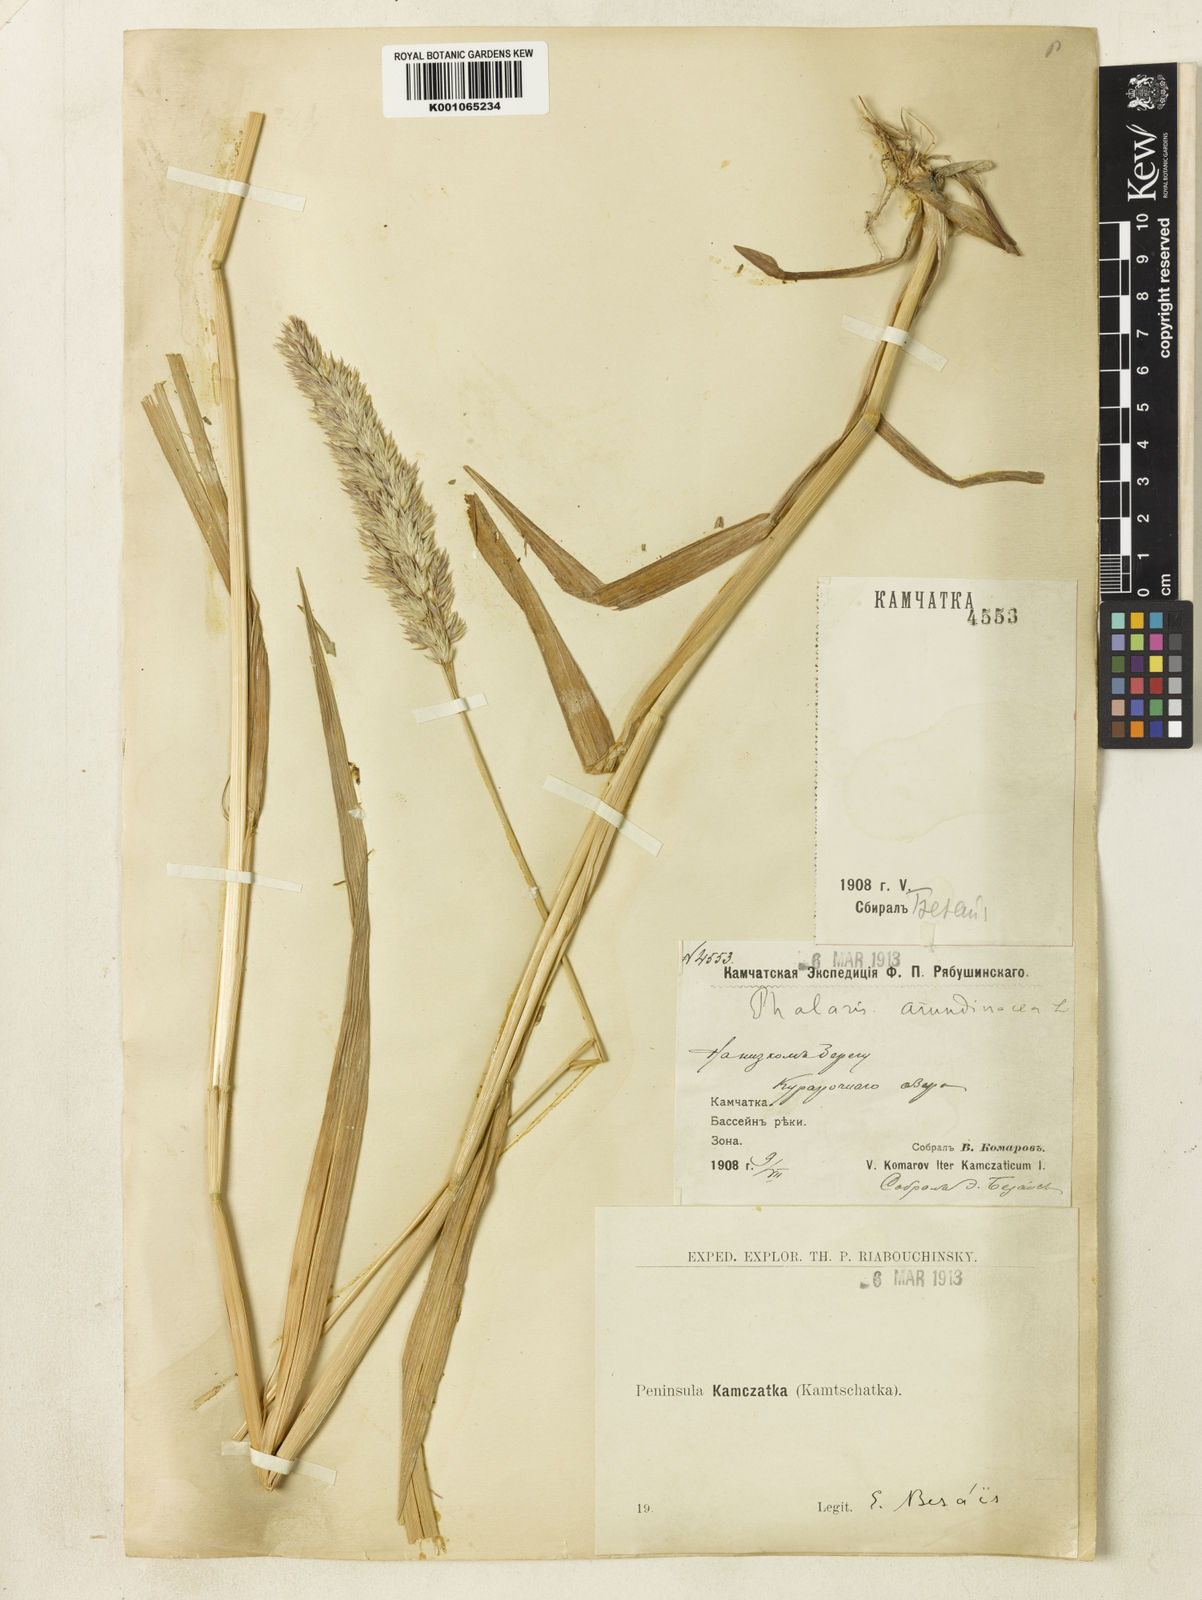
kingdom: Plantae
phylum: Tracheophyta
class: Liliopsida
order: Poales
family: Poaceae
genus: Phalaris
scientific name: Phalaris arundinacea
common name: Reed canary-grass
